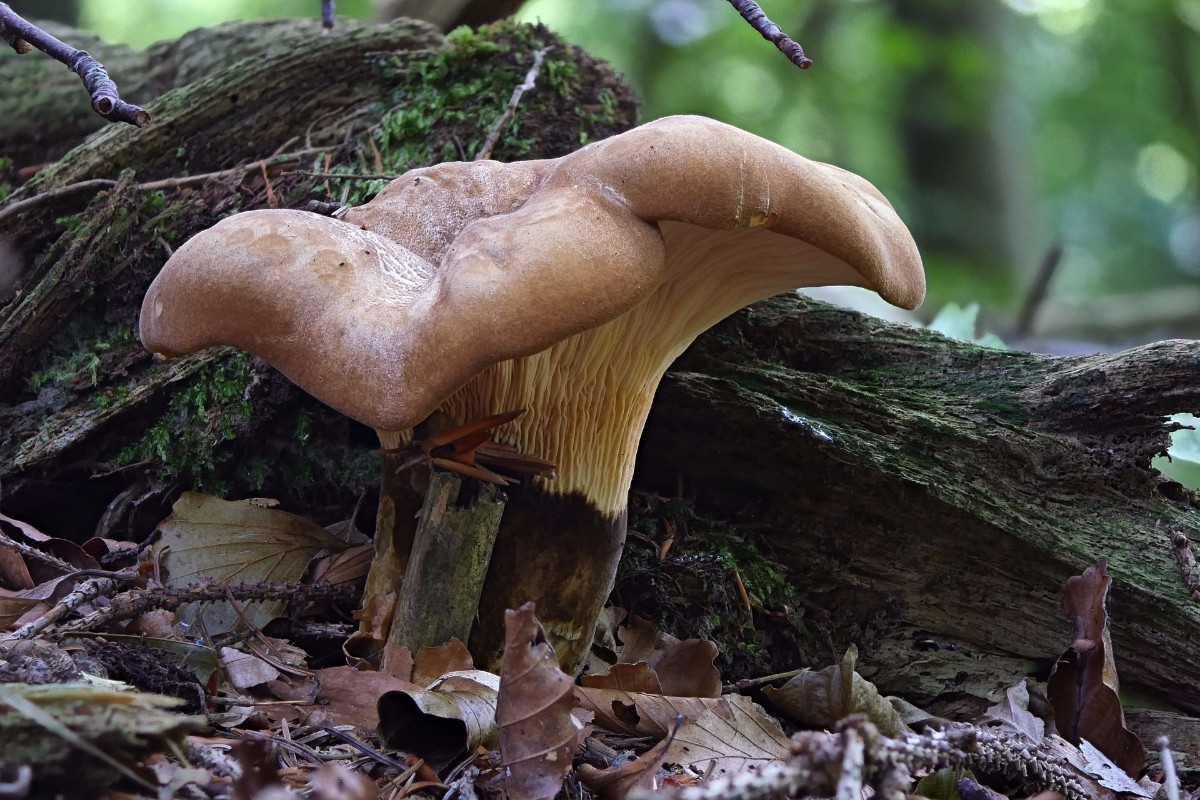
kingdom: Fungi
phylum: Basidiomycota
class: Agaricomycetes
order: Boletales
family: Tapinellaceae
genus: Tapinella
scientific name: Tapinella atrotomentosa
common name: sortfiltet viftesvamp
